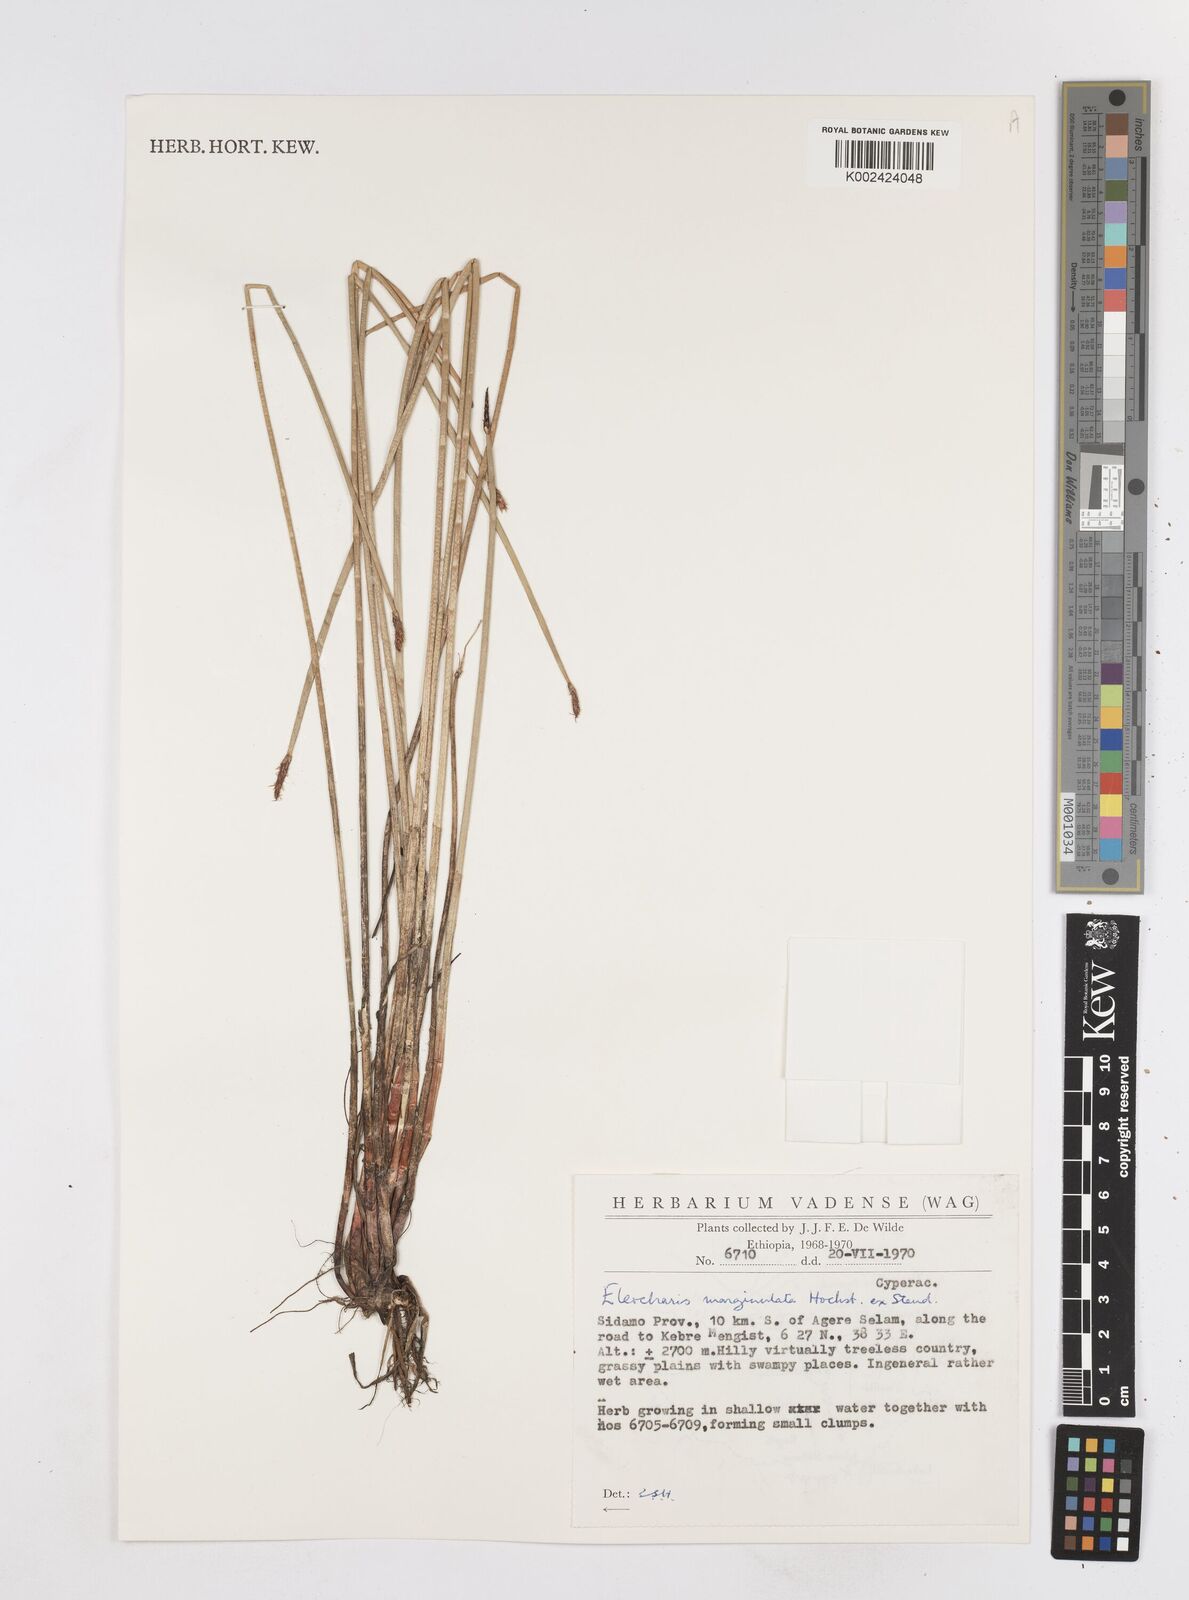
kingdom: Plantae
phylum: Tracheophyta
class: Liliopsida
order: Poales
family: Cyperaceae
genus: Eleocharis
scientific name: Eleocharis marginulata
